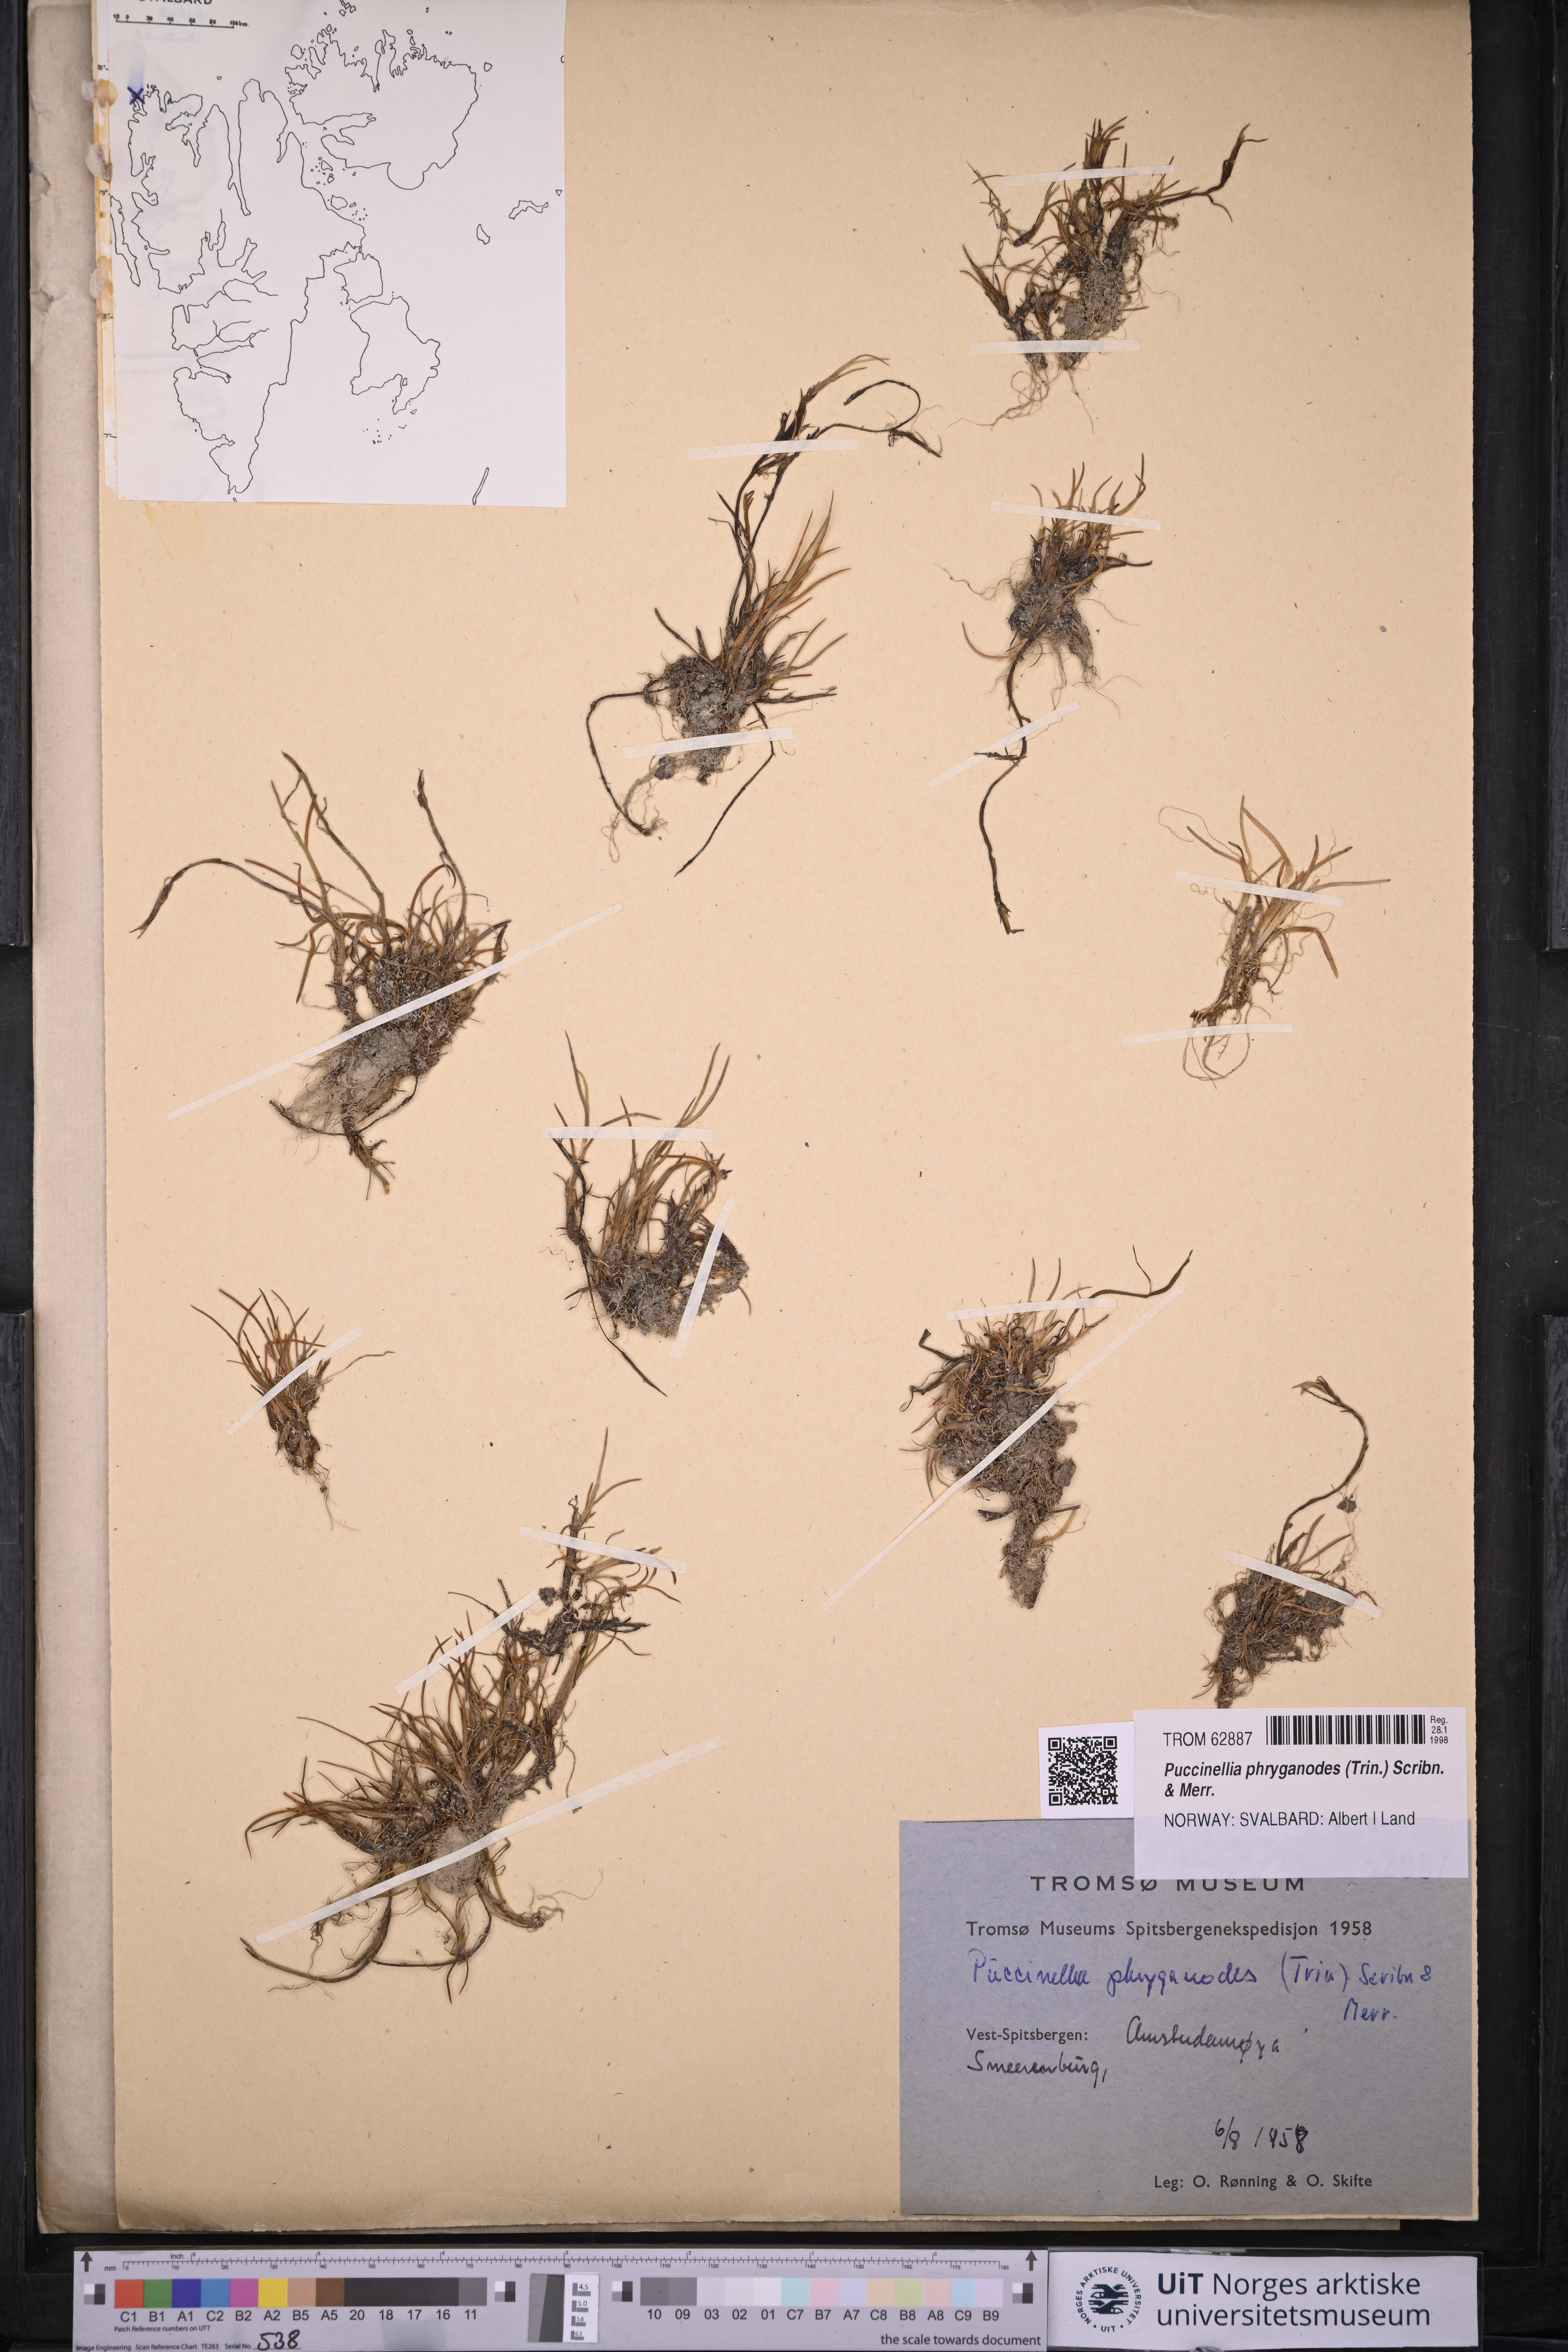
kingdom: Plantae
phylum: Tracheophyta
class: Liliopsida
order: Poales
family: Poaceae
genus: Puccinellia
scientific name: Puccinellia phryganodes
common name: Creeping alkaligrass
